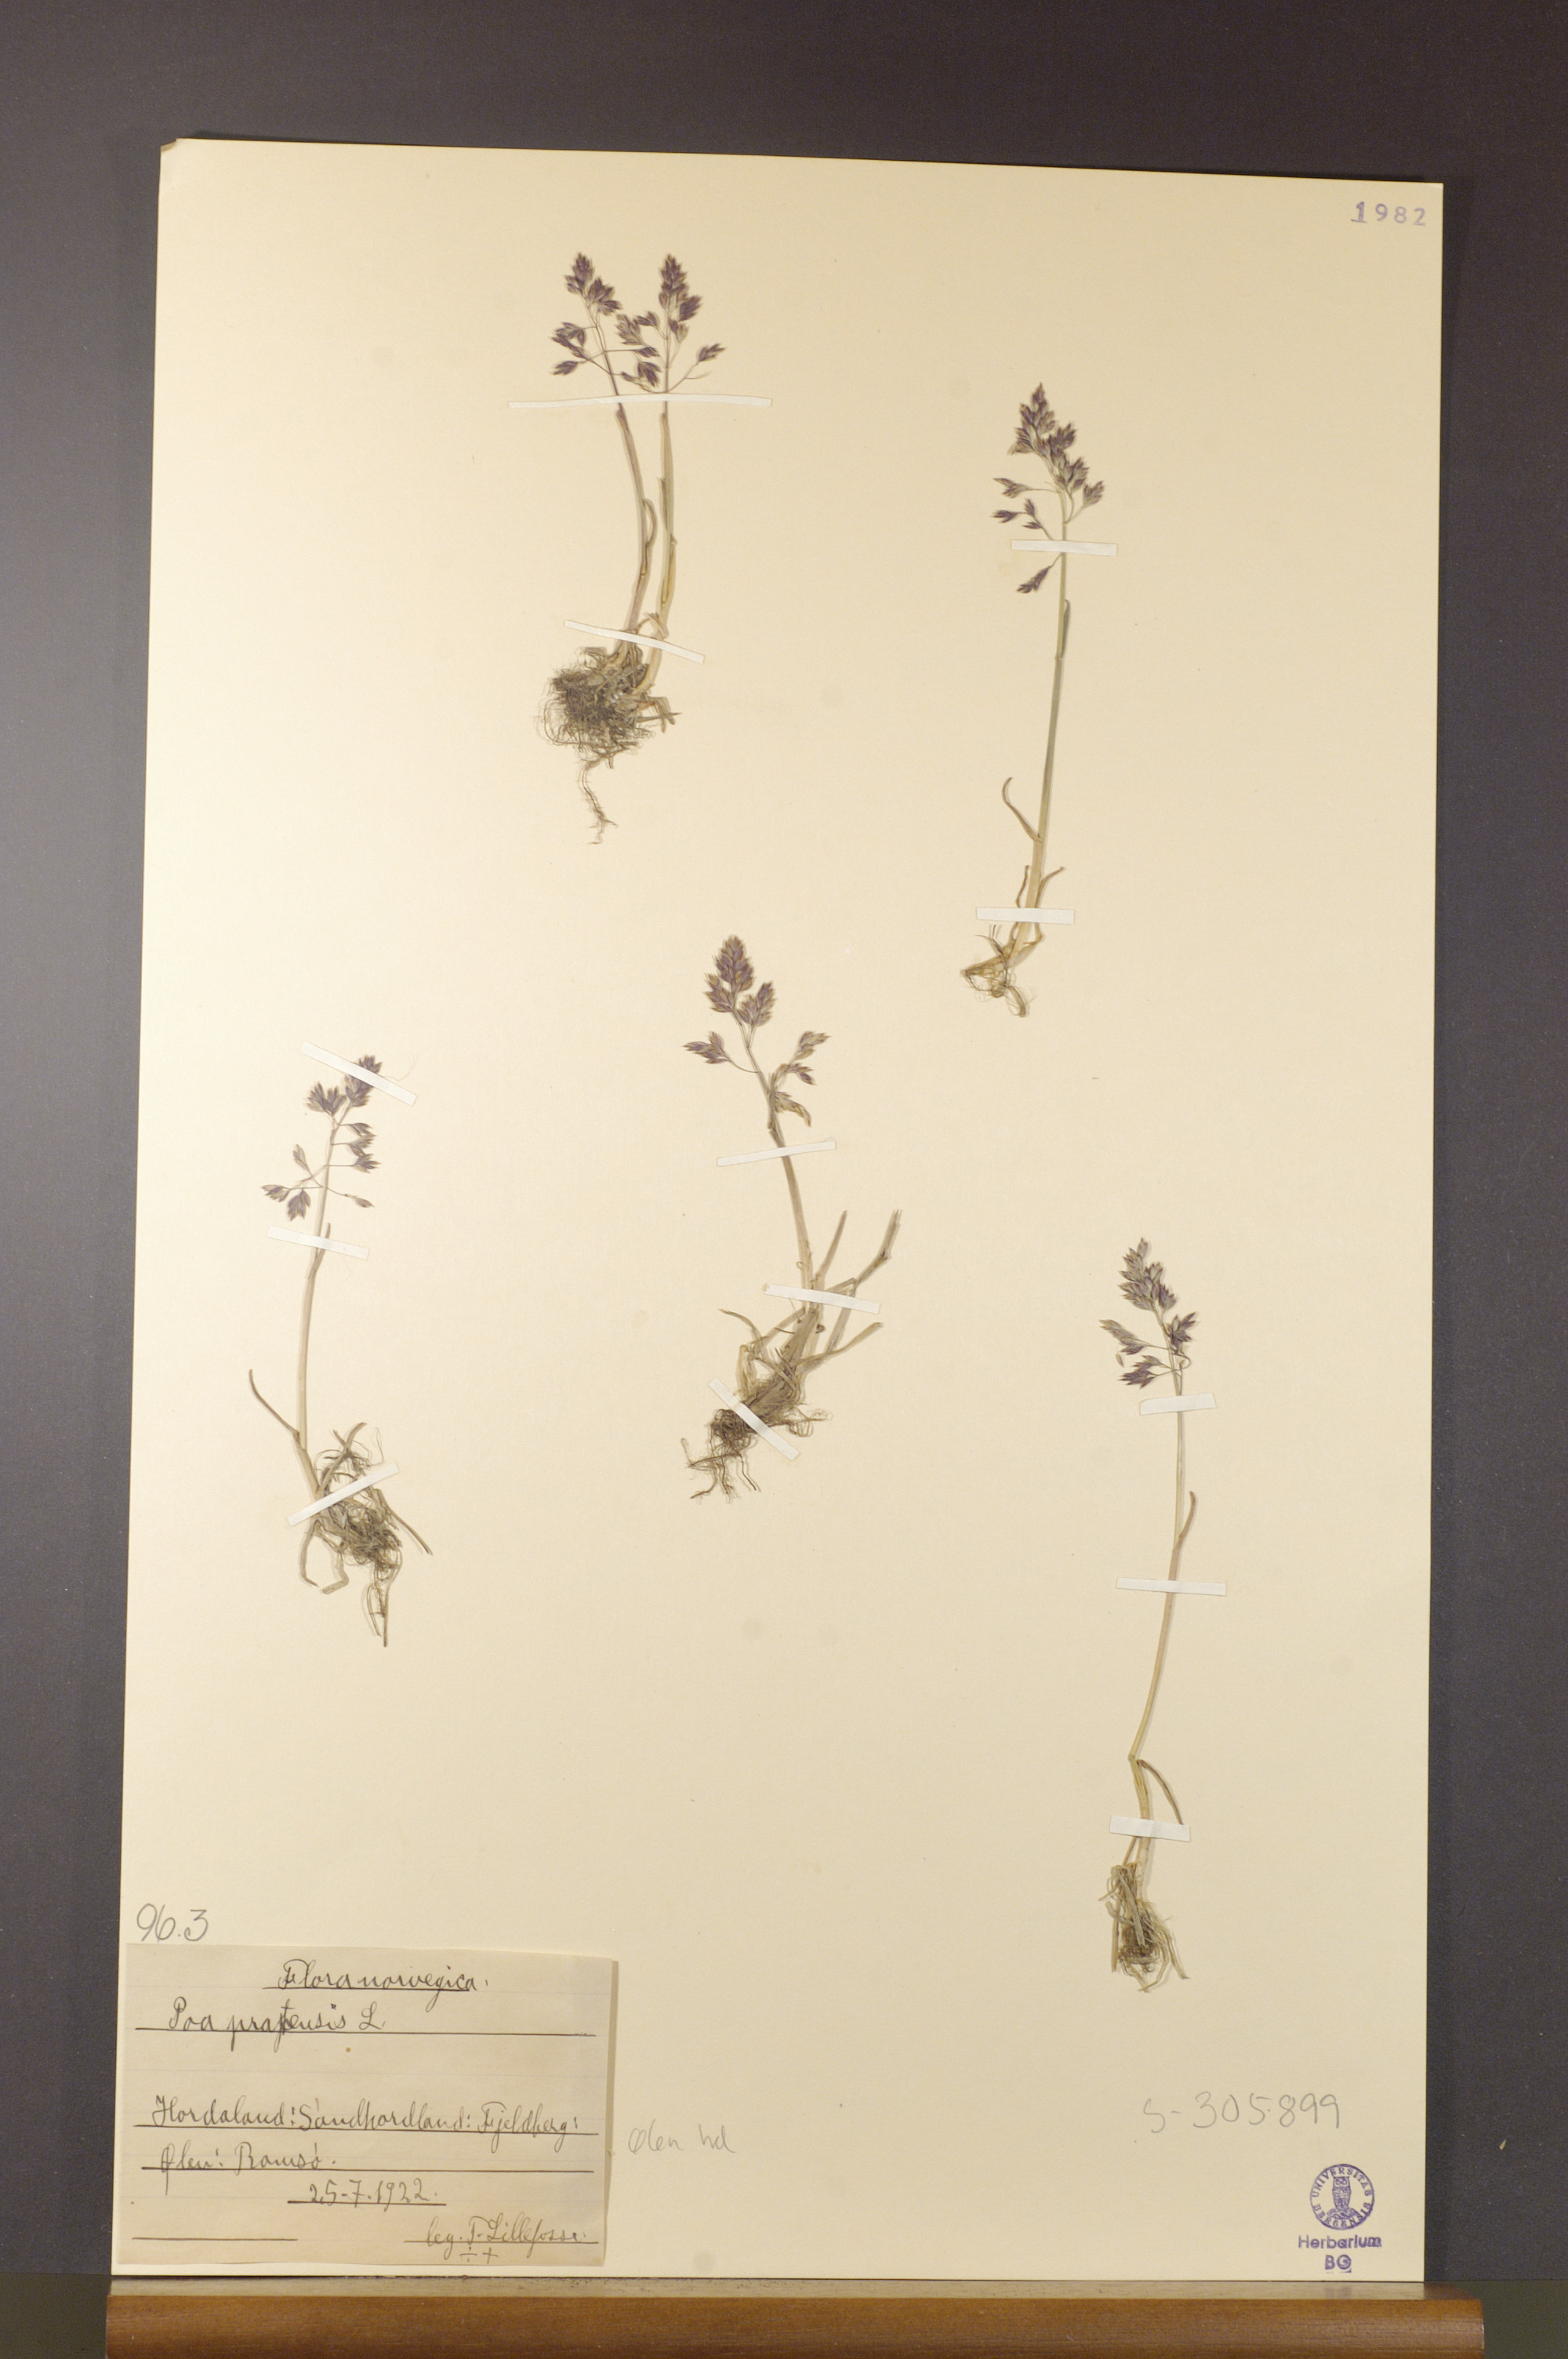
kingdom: Plantae
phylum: Tracheophyta
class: Liliopsida
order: Poales
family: Poaceae
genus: Poa
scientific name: Poa pratensis
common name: Kentucky bluegrass
